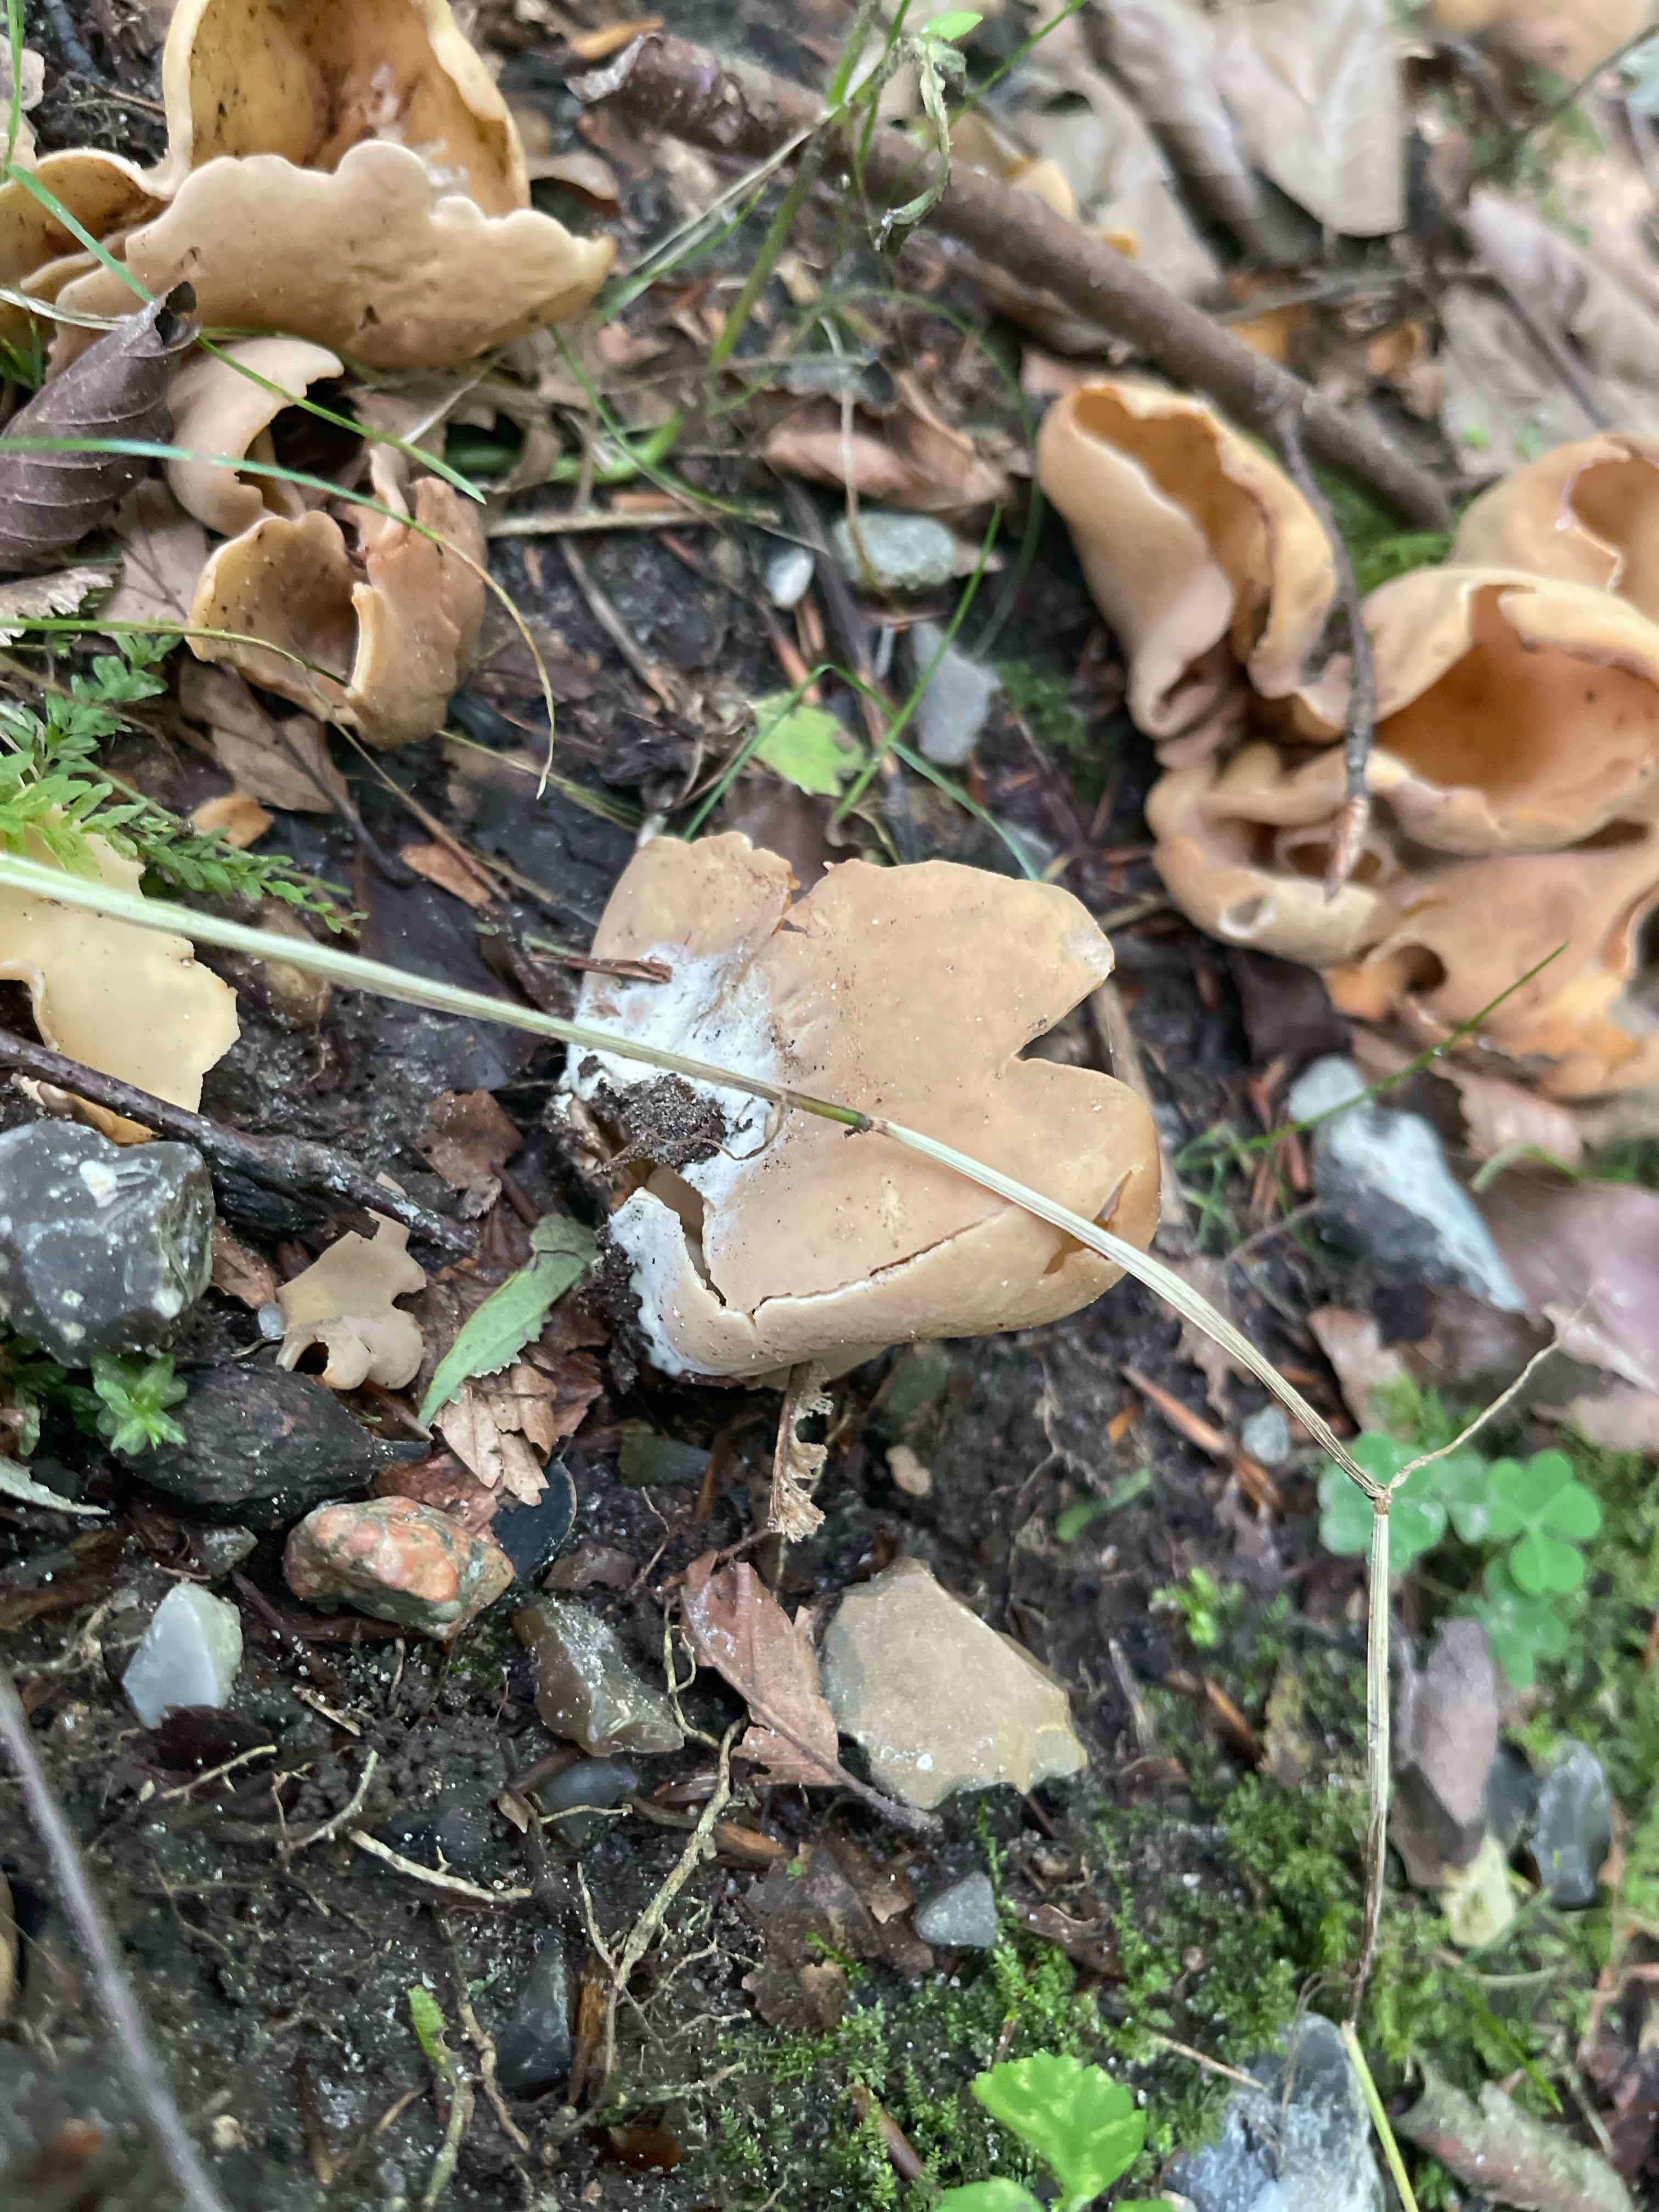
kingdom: Fungi
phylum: Ascomycota
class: Pezizomycetes
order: Pezizales
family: Otideaceae
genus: Otidea
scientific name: Otidea
